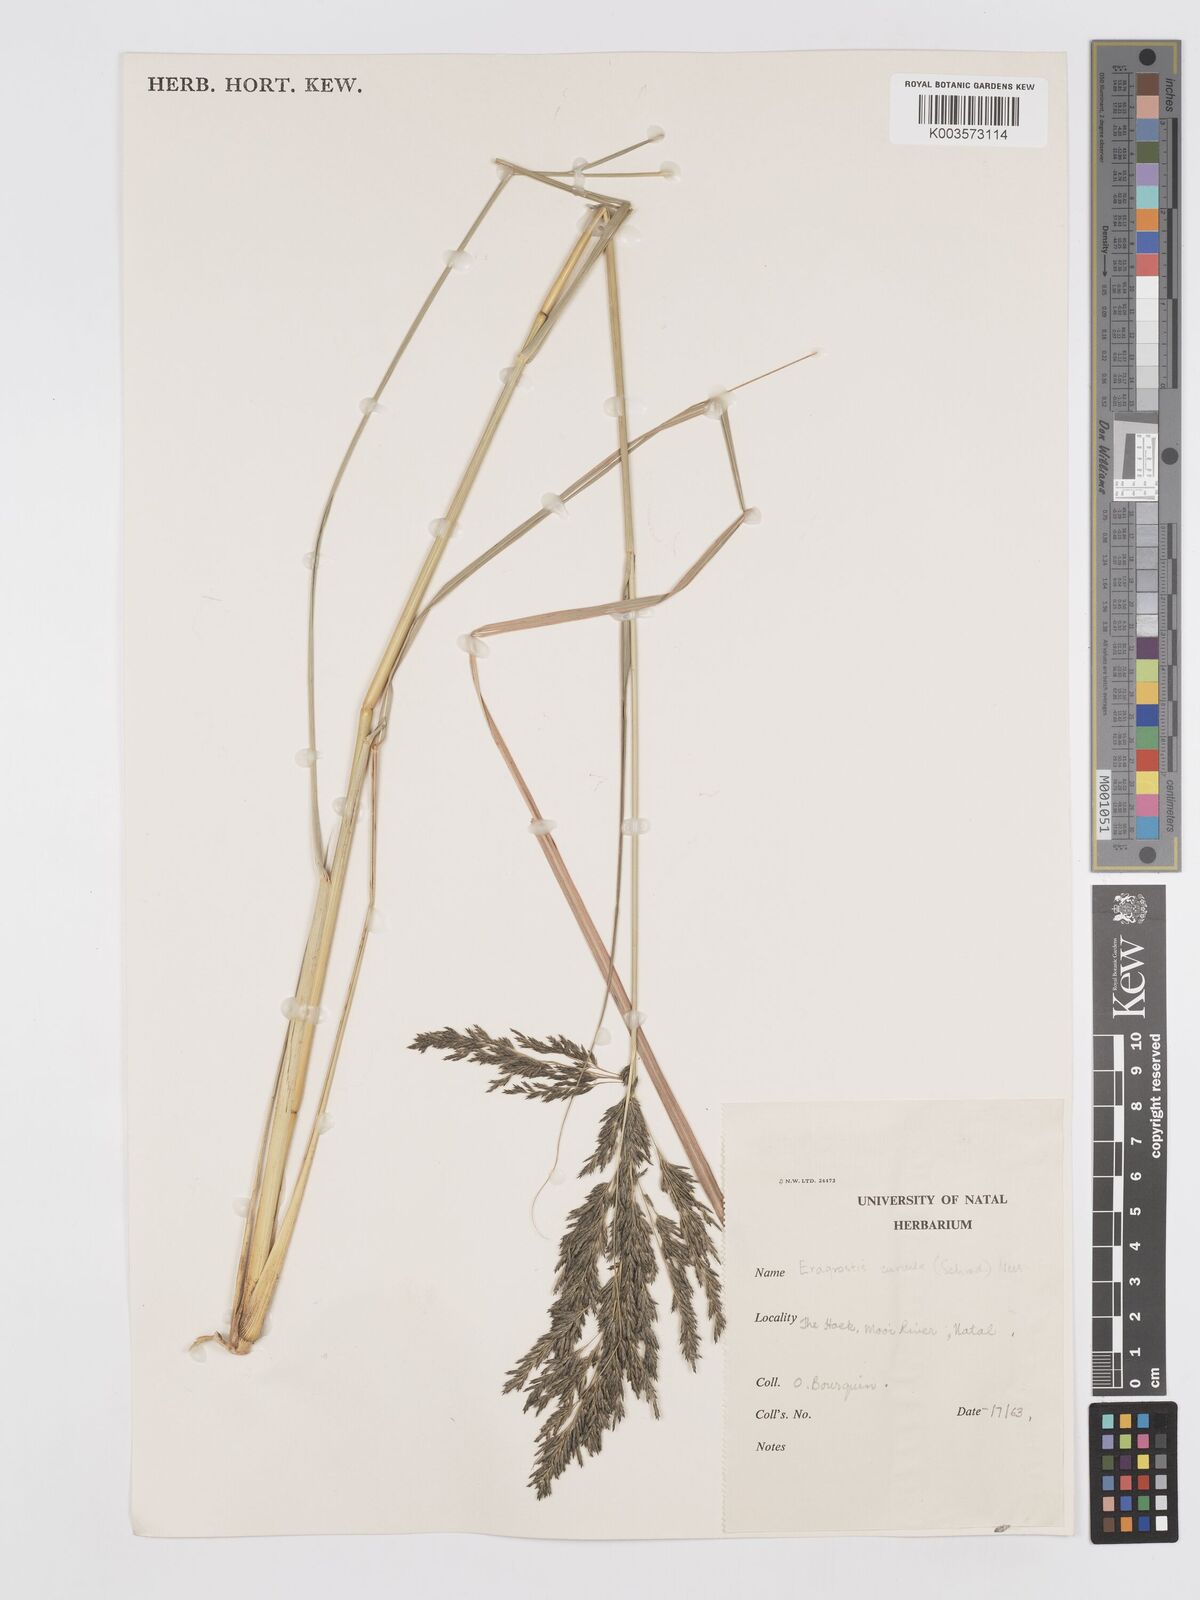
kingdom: Plantae
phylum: Tracheophyta
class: Liliopsida
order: Poales
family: Poaceae
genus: Eragrostis
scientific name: Eragrostis curvula
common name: African love-grass
